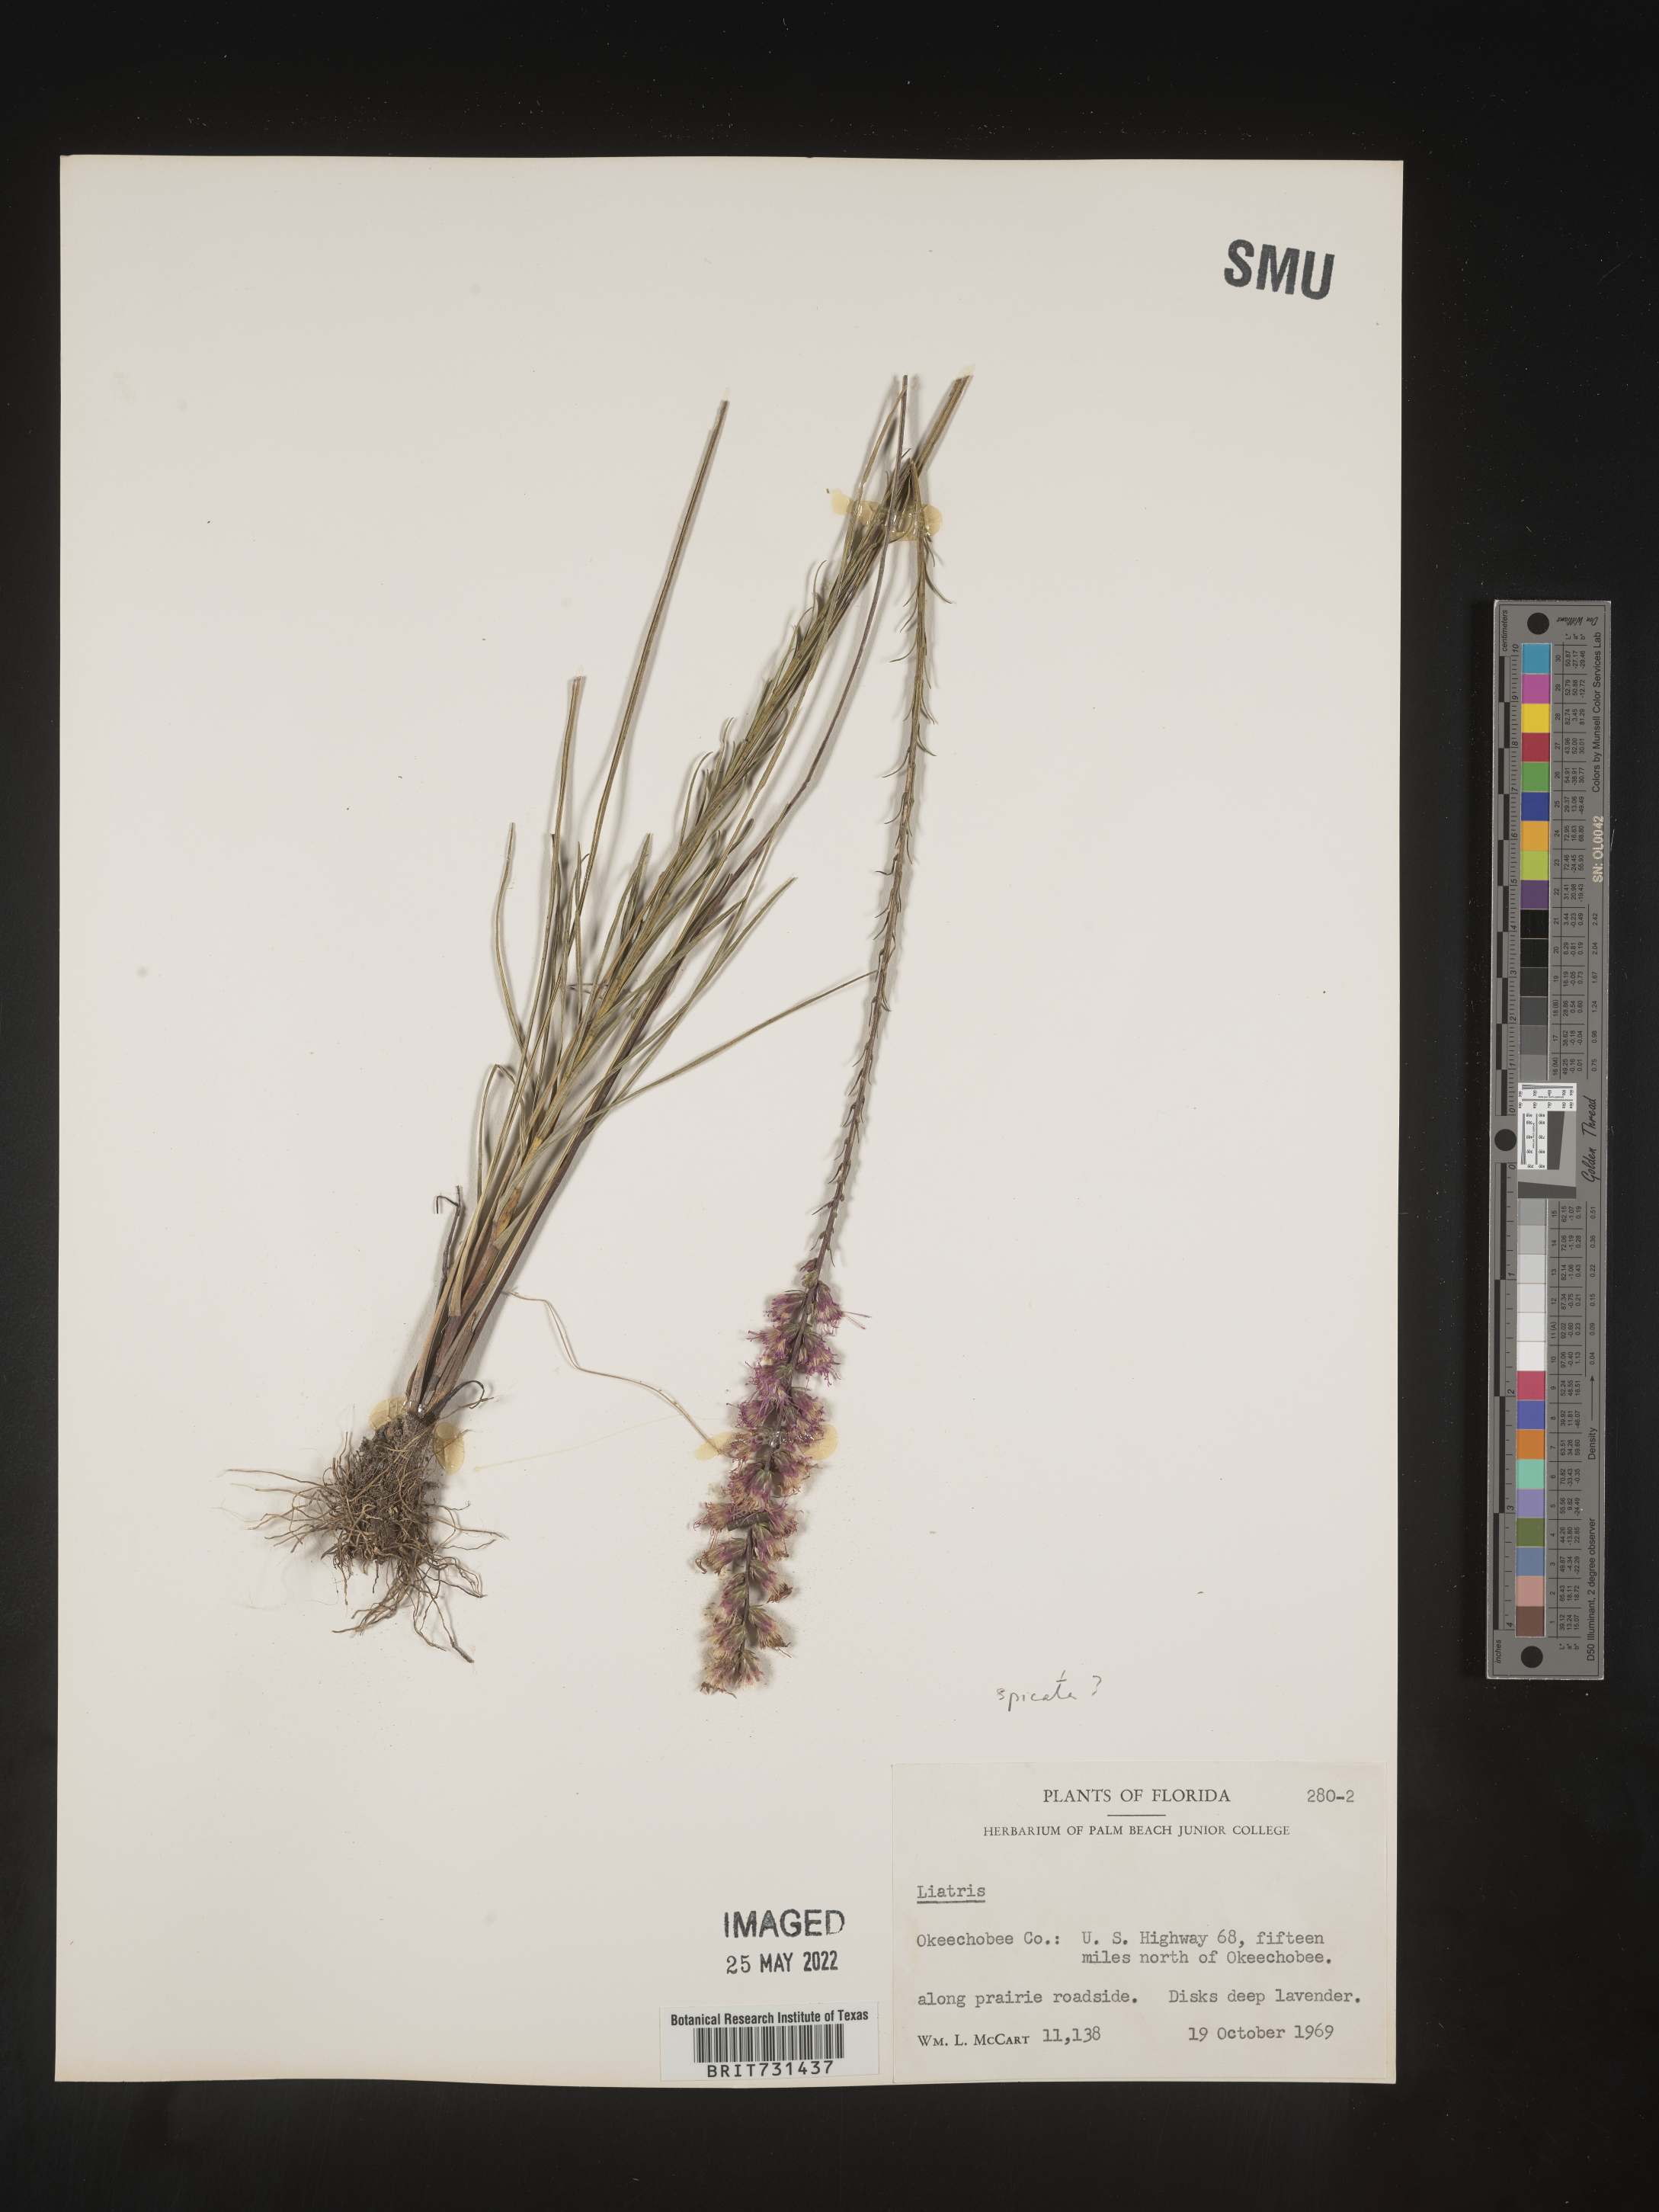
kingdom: Plantae
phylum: Tracheophyta
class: Magnoliopsida
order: Asterales
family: Asteraceae
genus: Liatris
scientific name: Liatris
